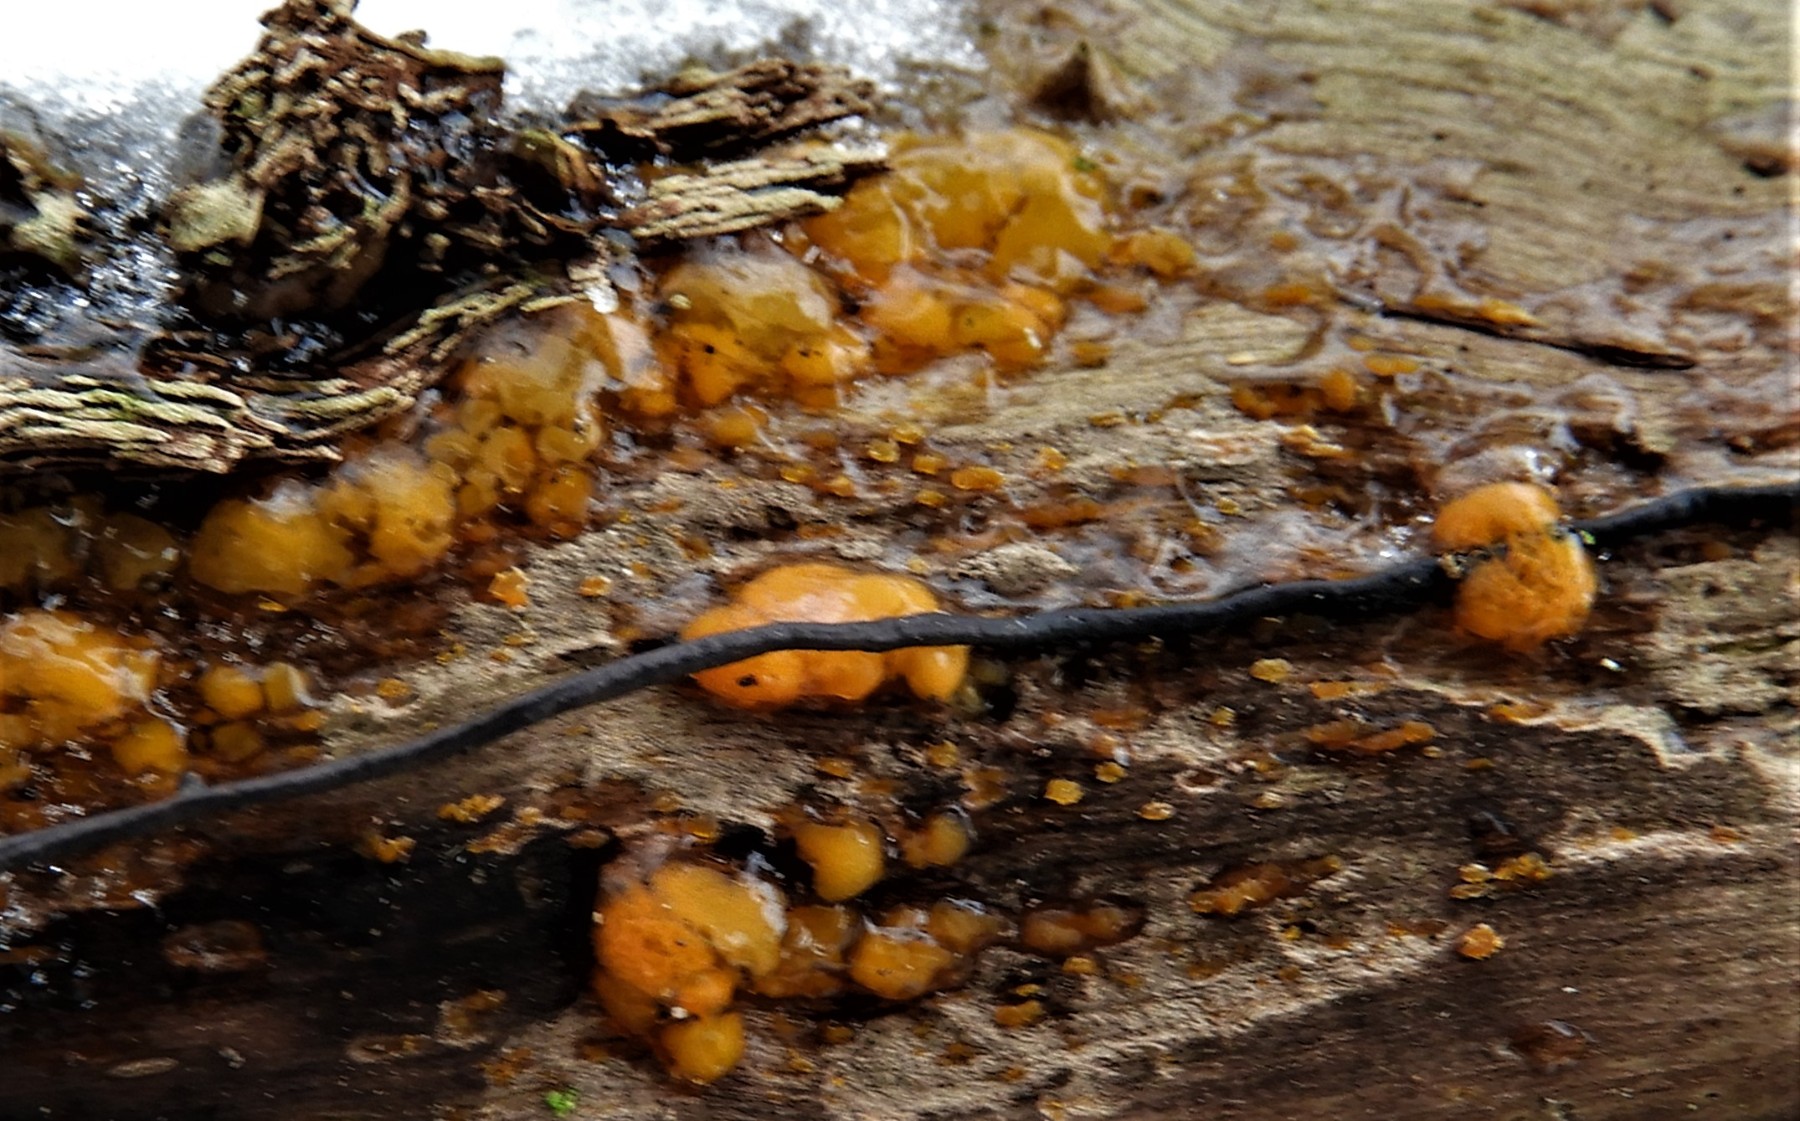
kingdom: Fungi
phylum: Basidiomycota
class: Dacrymycetes
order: Dacrymycetales
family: Dacrymycetaceae
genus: Dacrymyces
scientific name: Dacrymyces lacrymalis
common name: rynket tåresvamp
